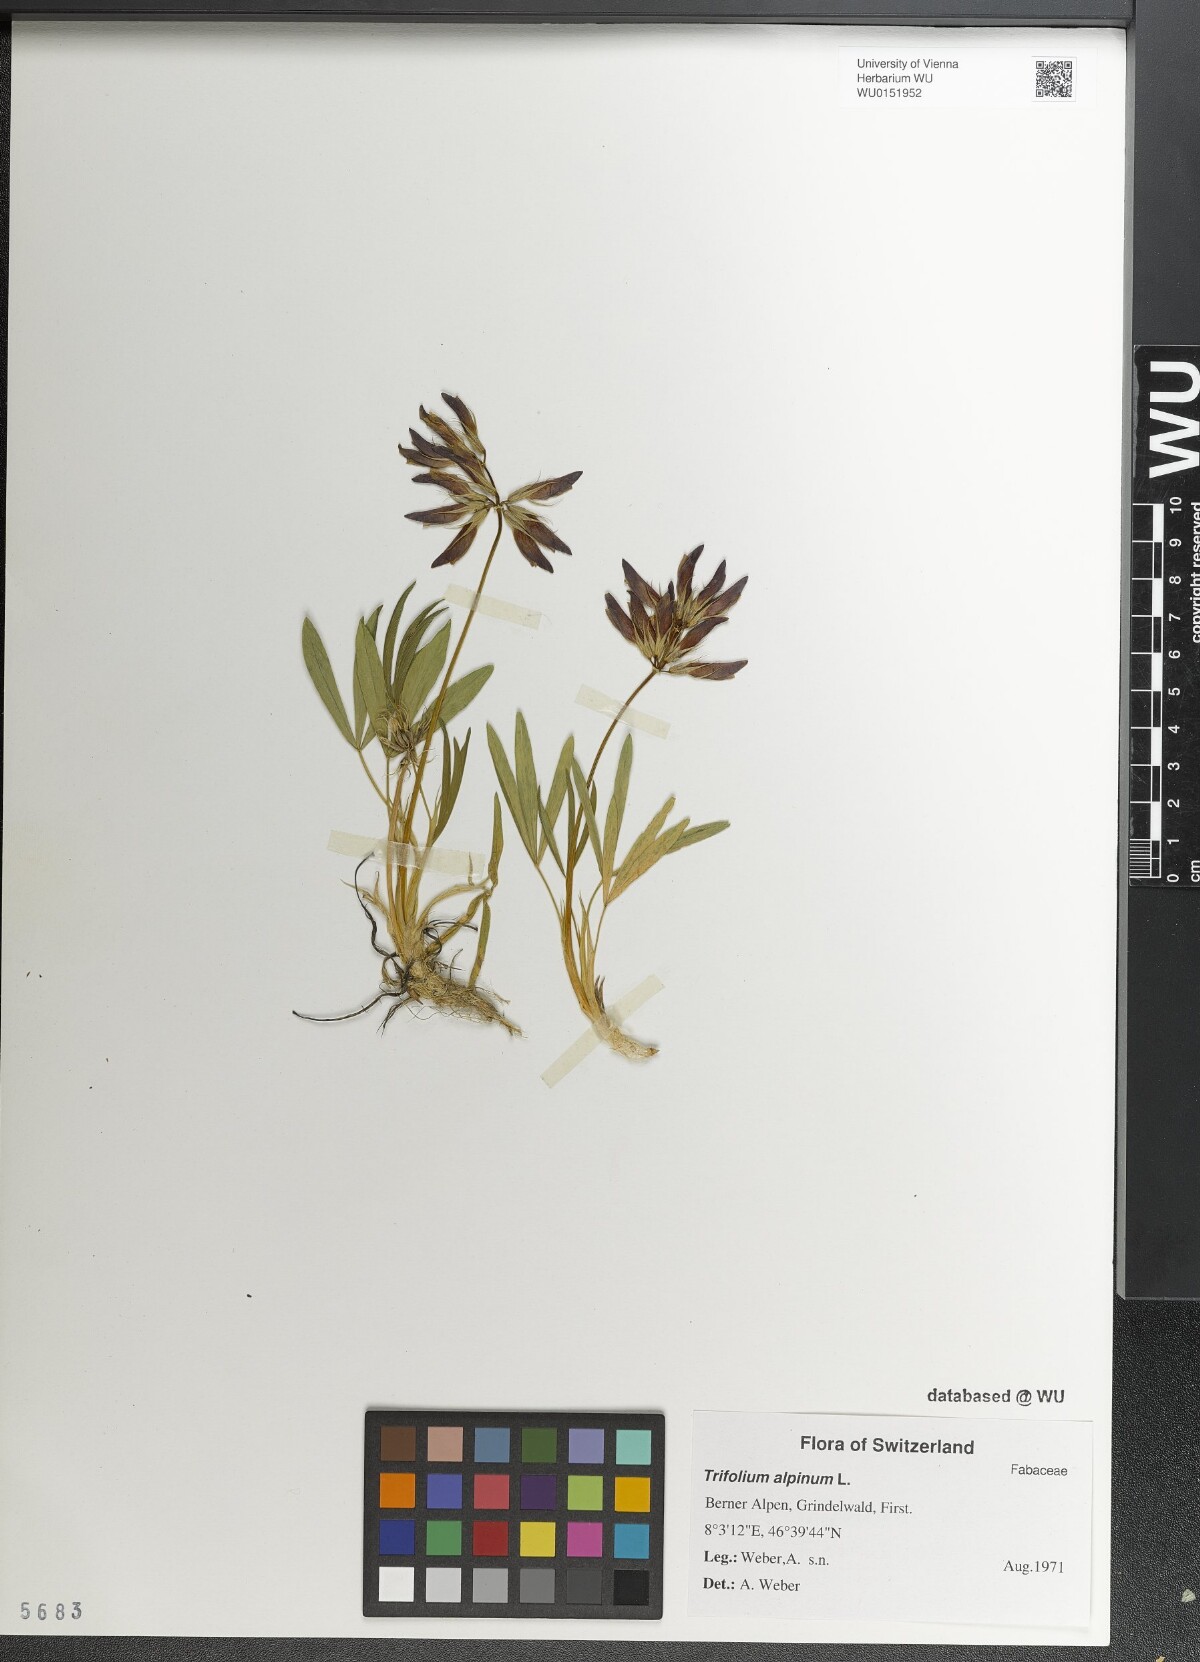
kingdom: Plantae
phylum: Tracheophyta
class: Magnoliopsida
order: Fabales
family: Fabaceae
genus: Trifolium
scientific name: Trifolium alpinum
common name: Alpine clover
